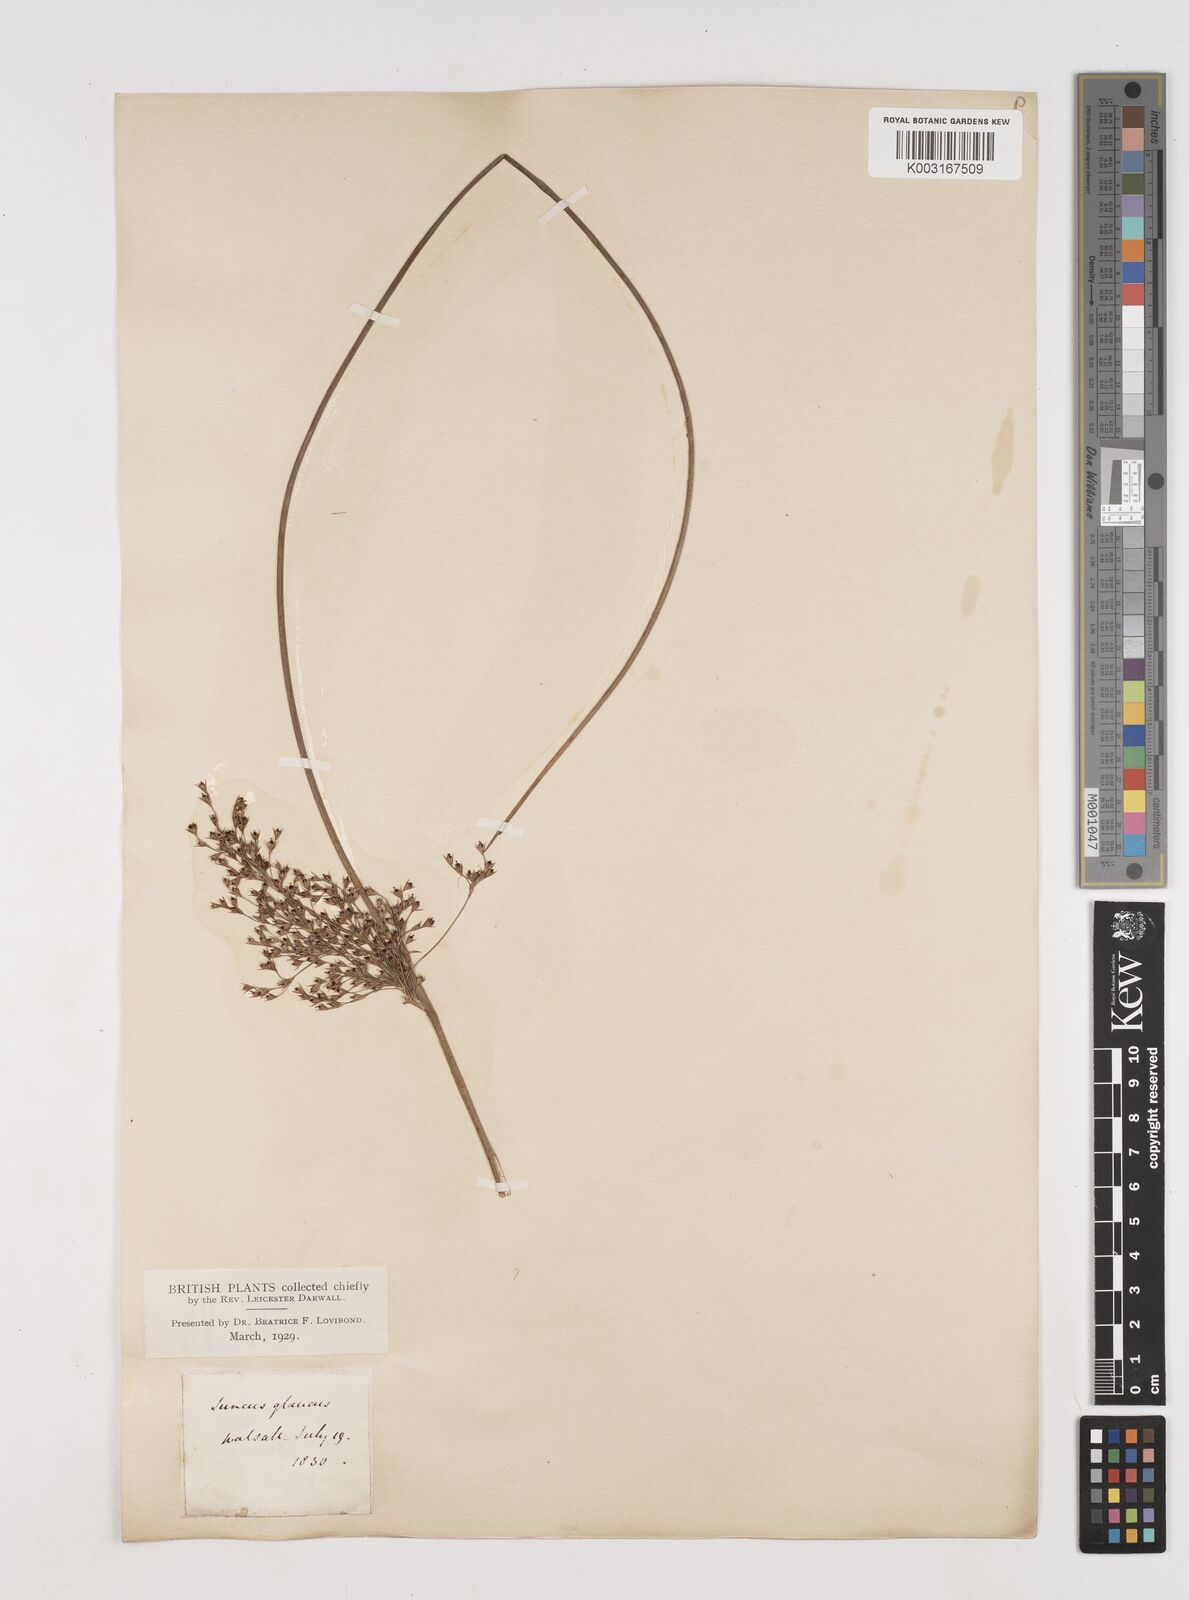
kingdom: Plantae
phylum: Tracheophyta
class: Liliopsida
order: Poales
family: Juncaceae
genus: Juncus
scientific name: Juncus inflexus
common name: Hard rush
